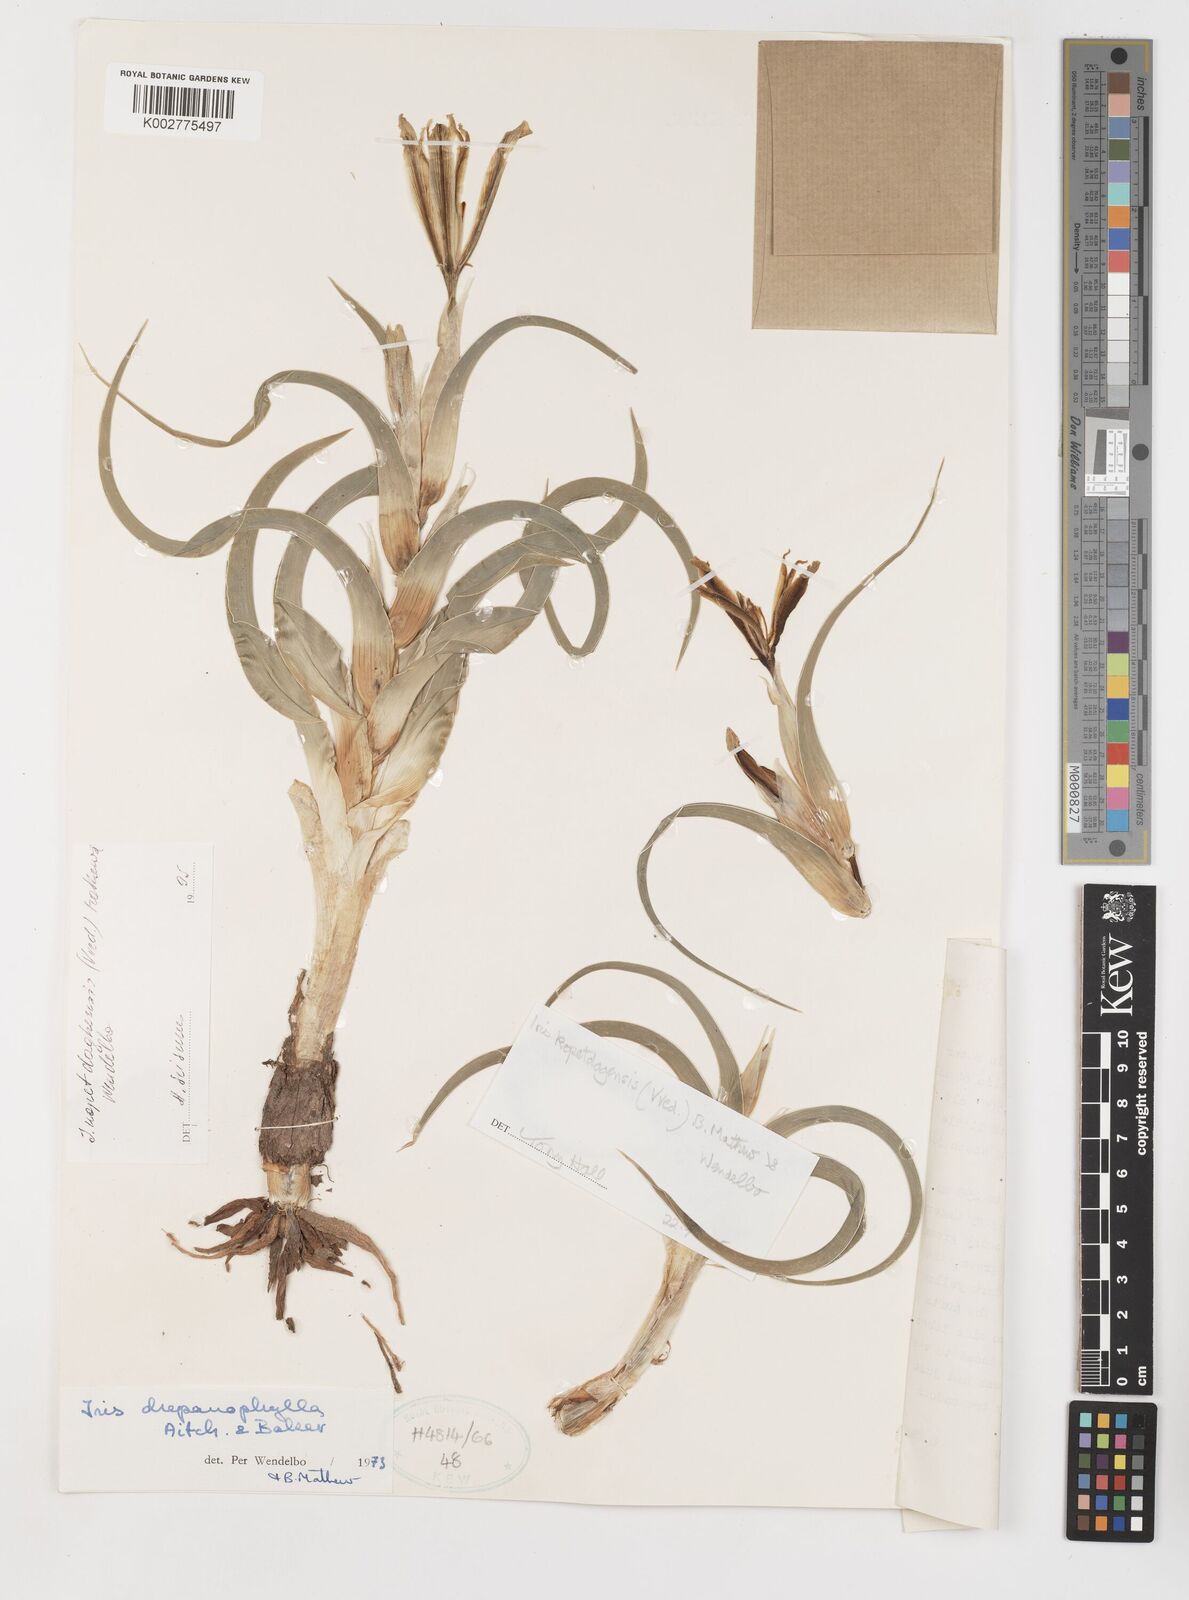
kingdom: Plantae
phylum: Tracheophyta
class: Liliopsida
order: Asparagales
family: Iridaceae
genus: Iris
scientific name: Iris kopetdagensis
